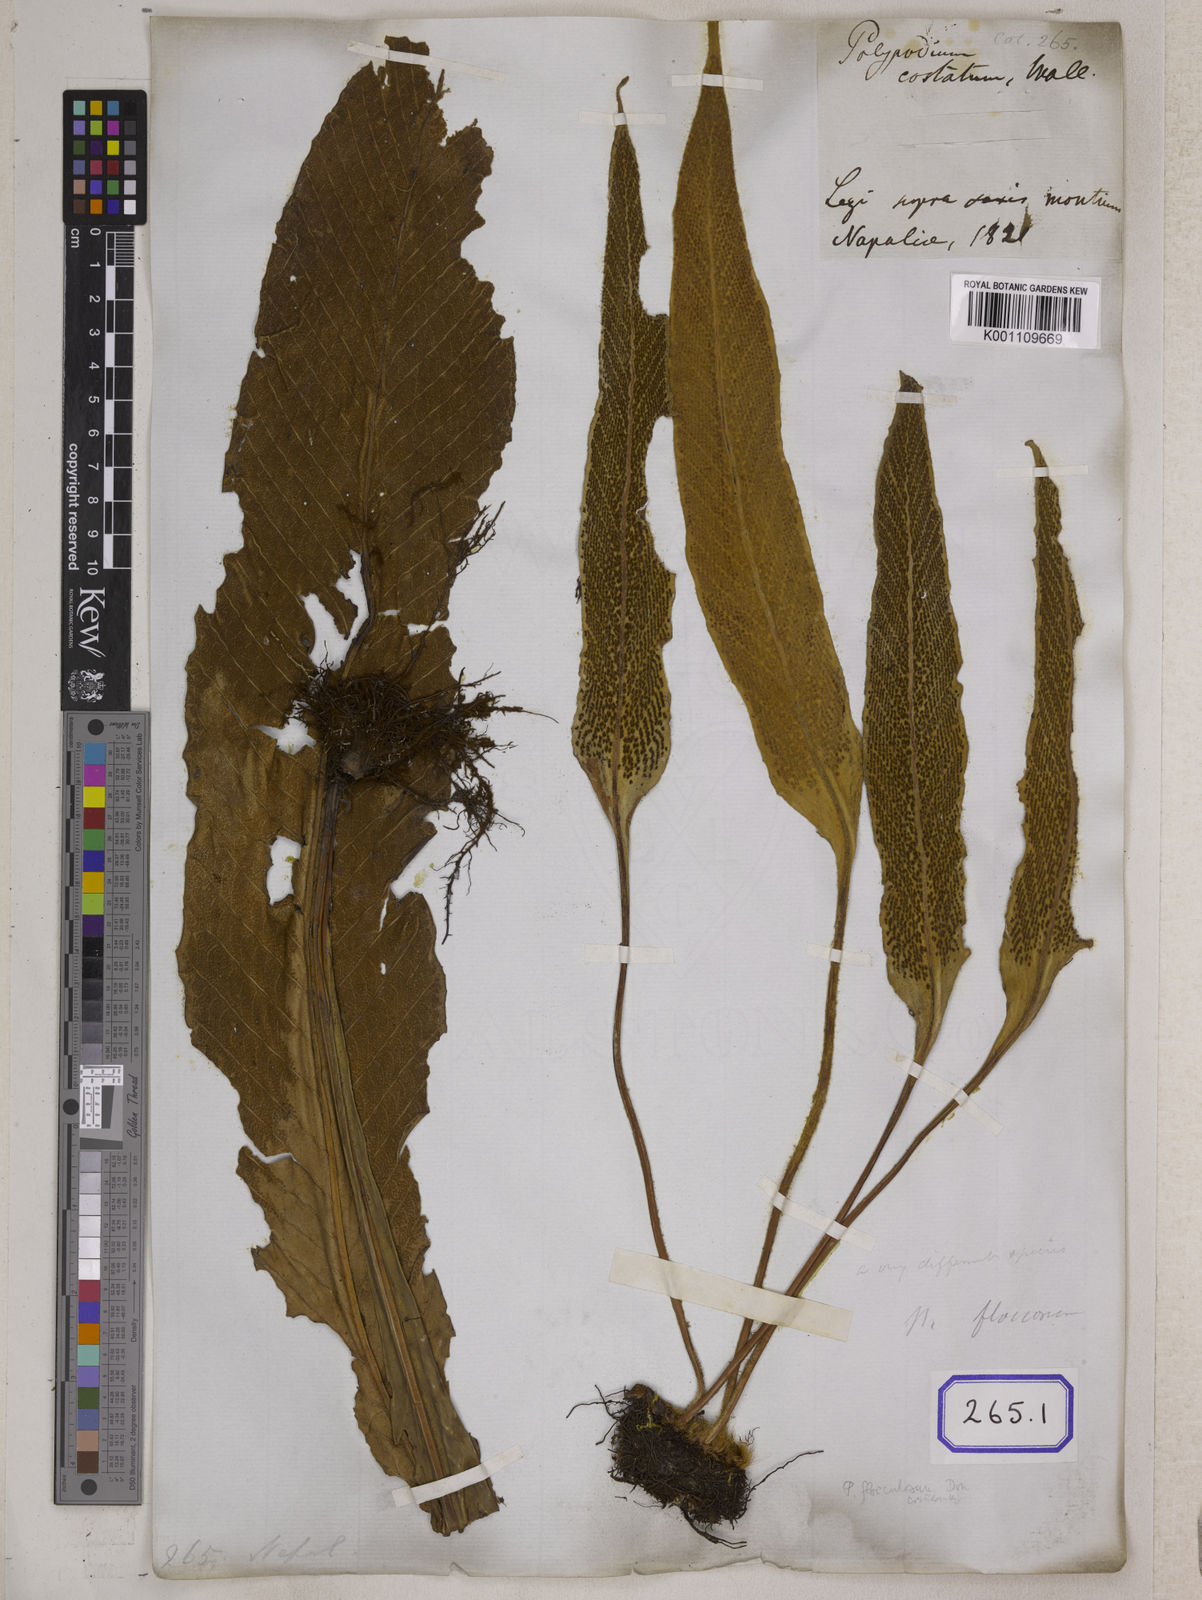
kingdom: Plantae
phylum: Tracheophyta
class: Polypodiopsida
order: Polypodiales
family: Thelypteridaceae
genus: Menisciopsis
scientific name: Menisciopsis penangiana
